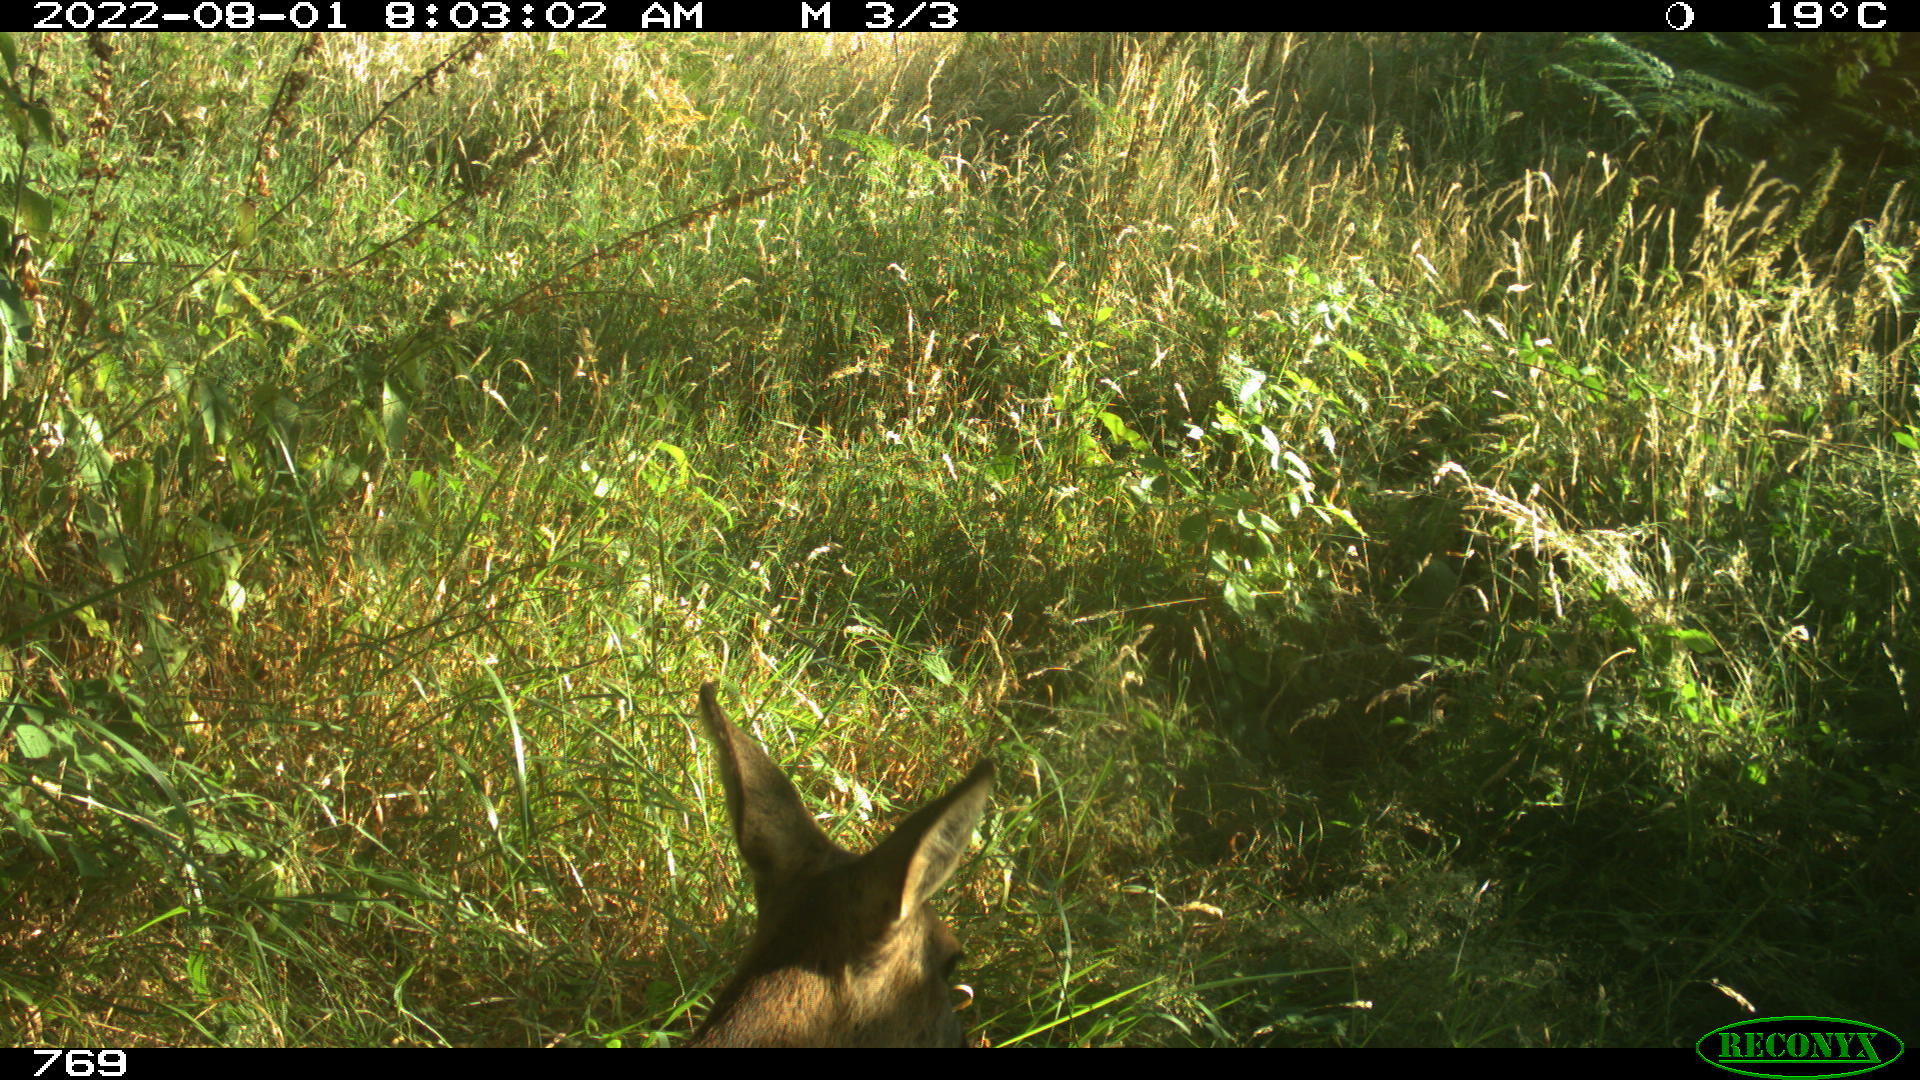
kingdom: Animalia
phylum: Chordata
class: Mammalia
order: Artiodactyla
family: Cervidae
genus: Capreolus
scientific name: Capreolus capreolus
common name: Western roe deer
